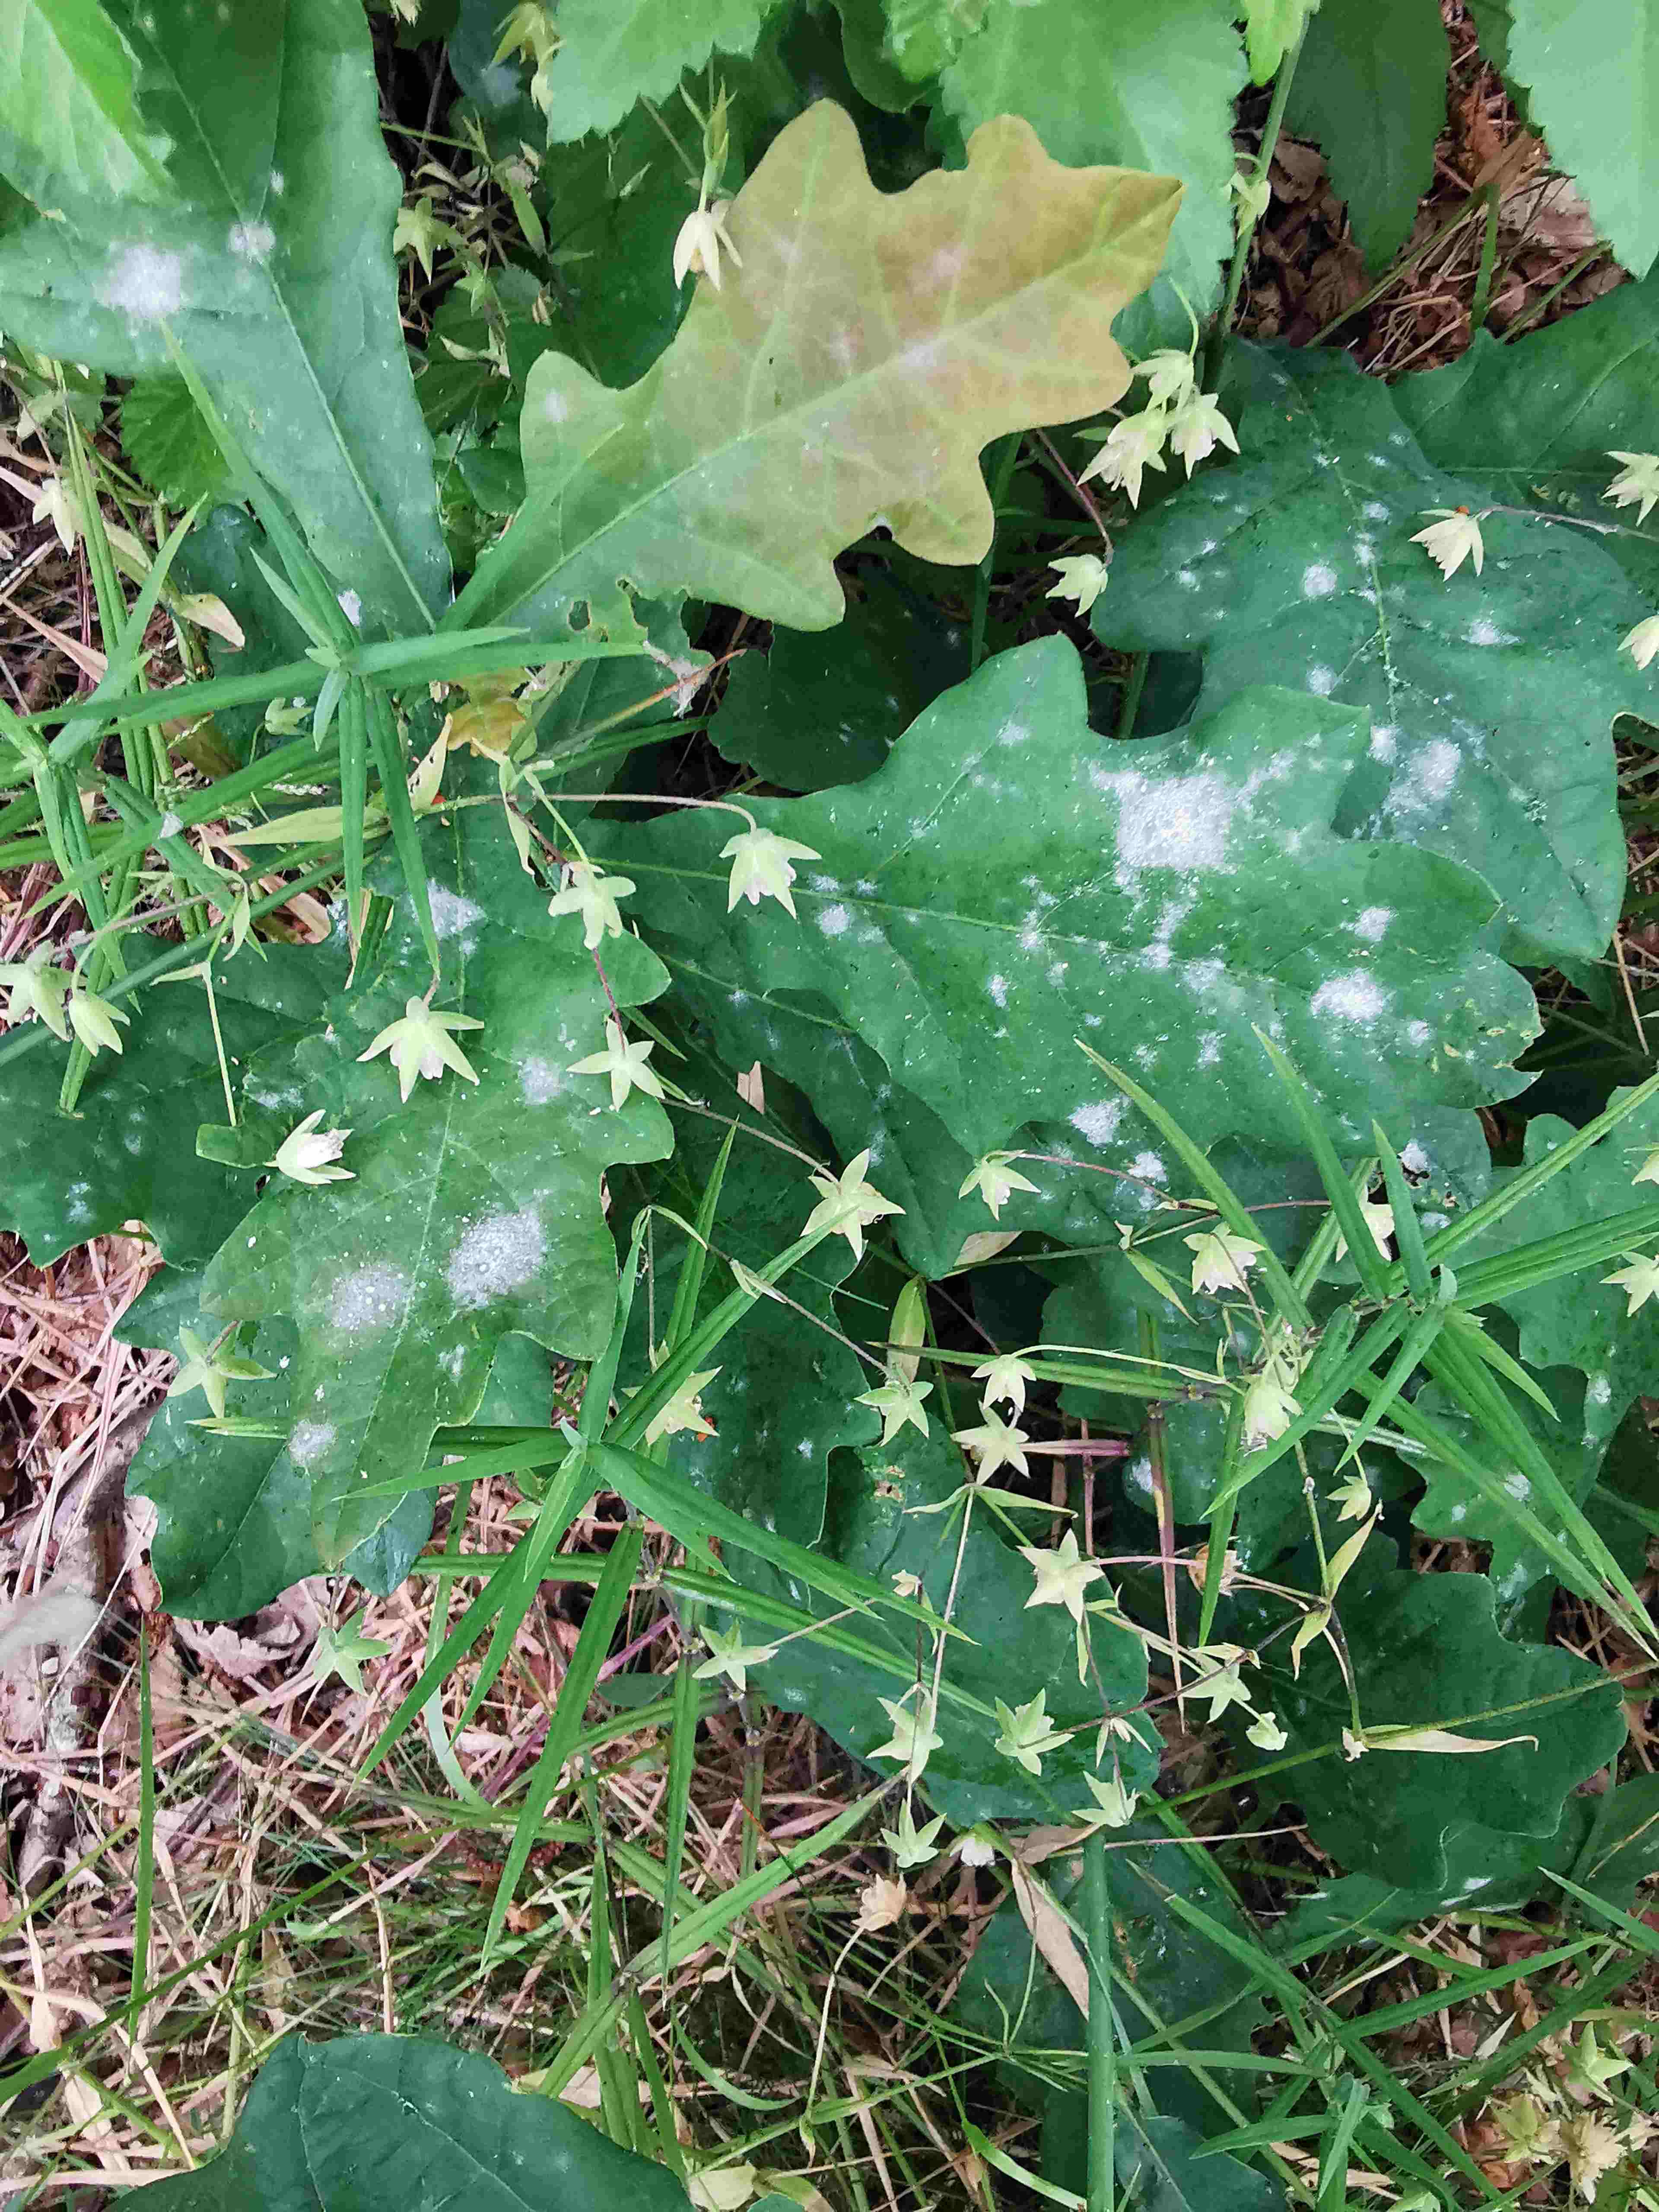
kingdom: Fungi
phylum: Ascomycota
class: Leotiomycetes
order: Helotiales
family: Erysiphaceae
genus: Erysiphe
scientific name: Erysiphe alphitoides
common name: ege-meldug
